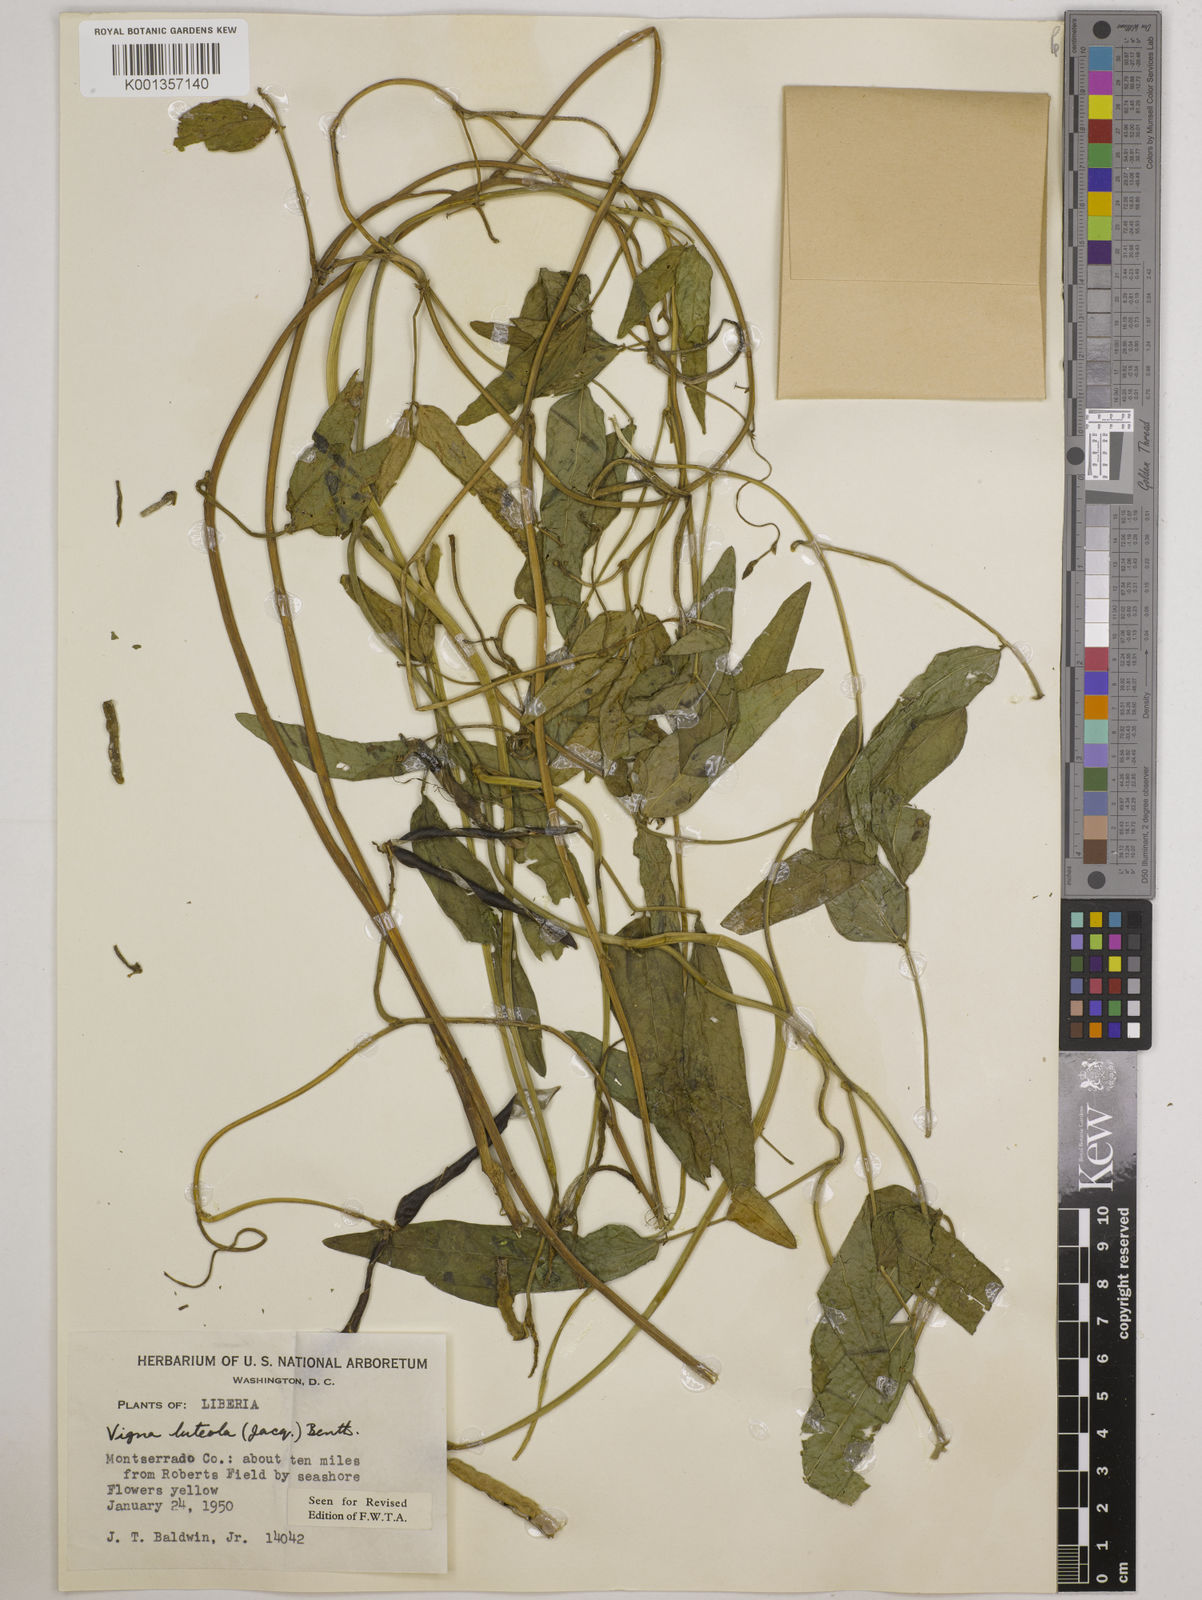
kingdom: Plantae
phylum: Tracheophyta
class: Magnoliopsida
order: Fabales
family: Fabaceae
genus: Vigna
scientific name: Vigna luteola
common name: Hairypod cowpea
